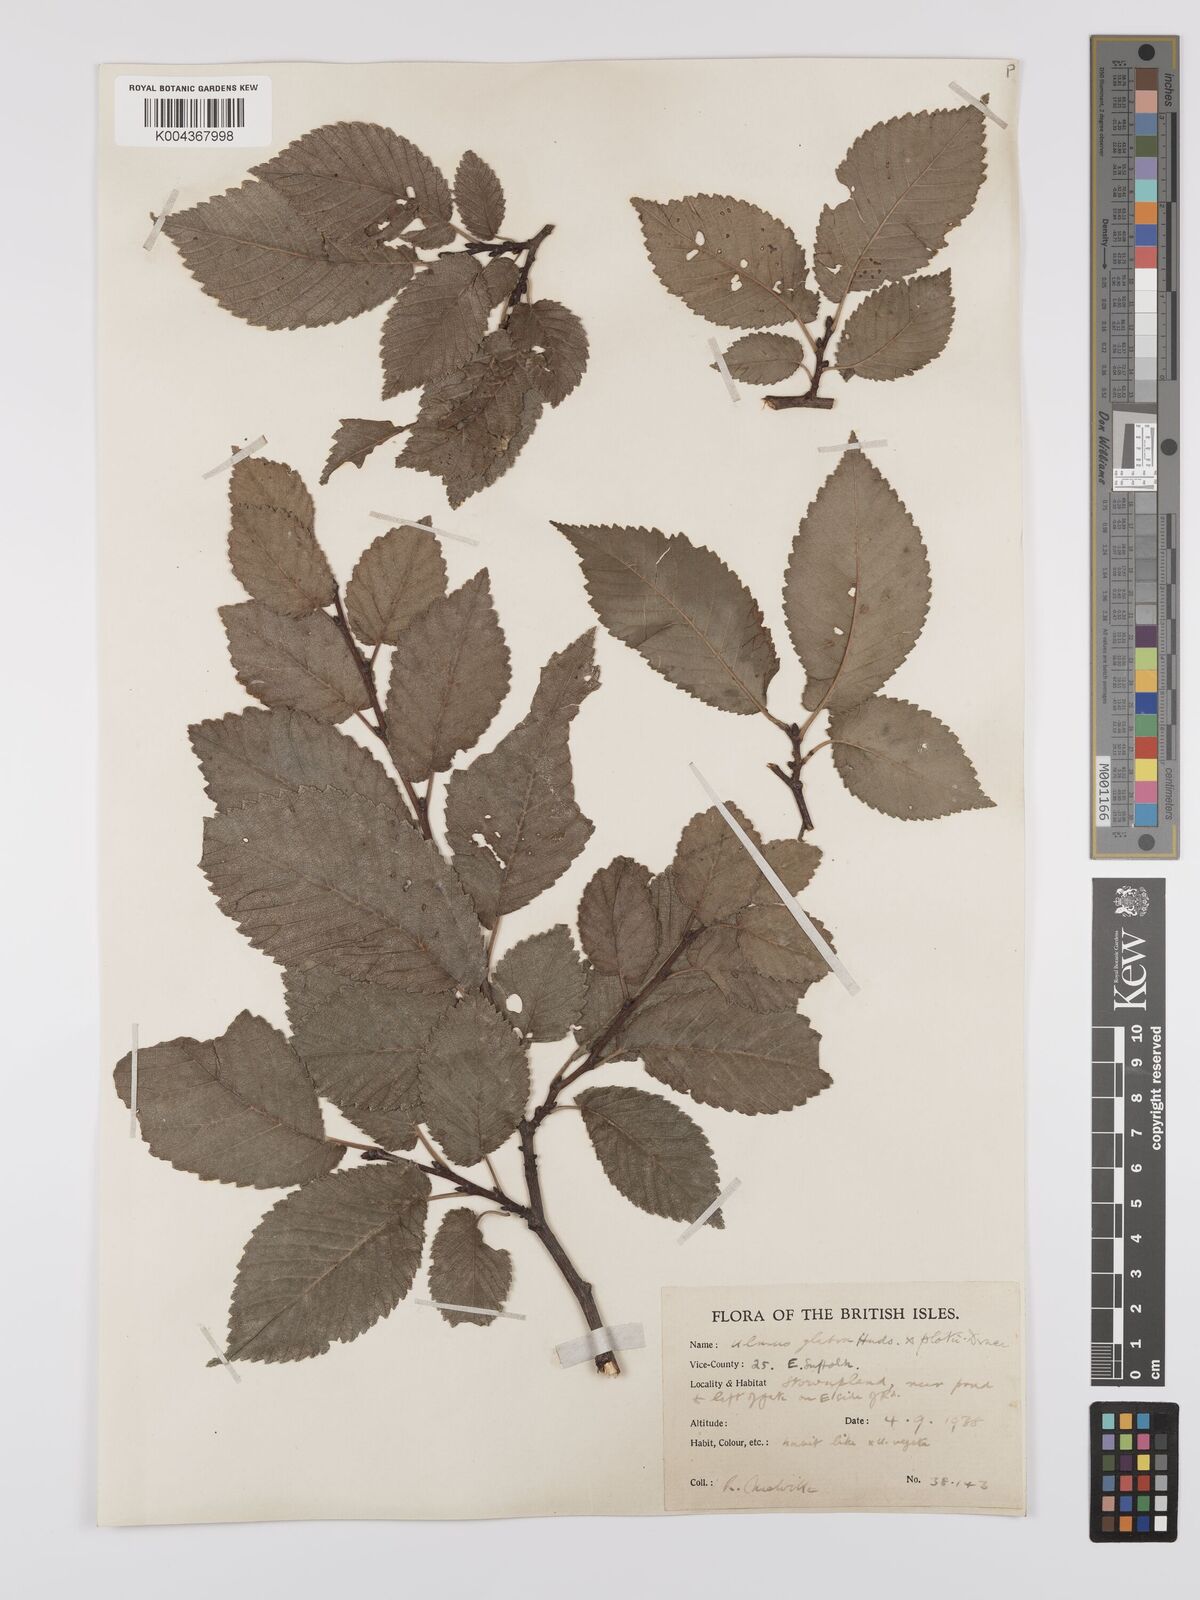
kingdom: Plantae
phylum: Tracheophyta
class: Magnoliopsida
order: Rosales
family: Ulmaceae
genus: Ulmus
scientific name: Ulmus
